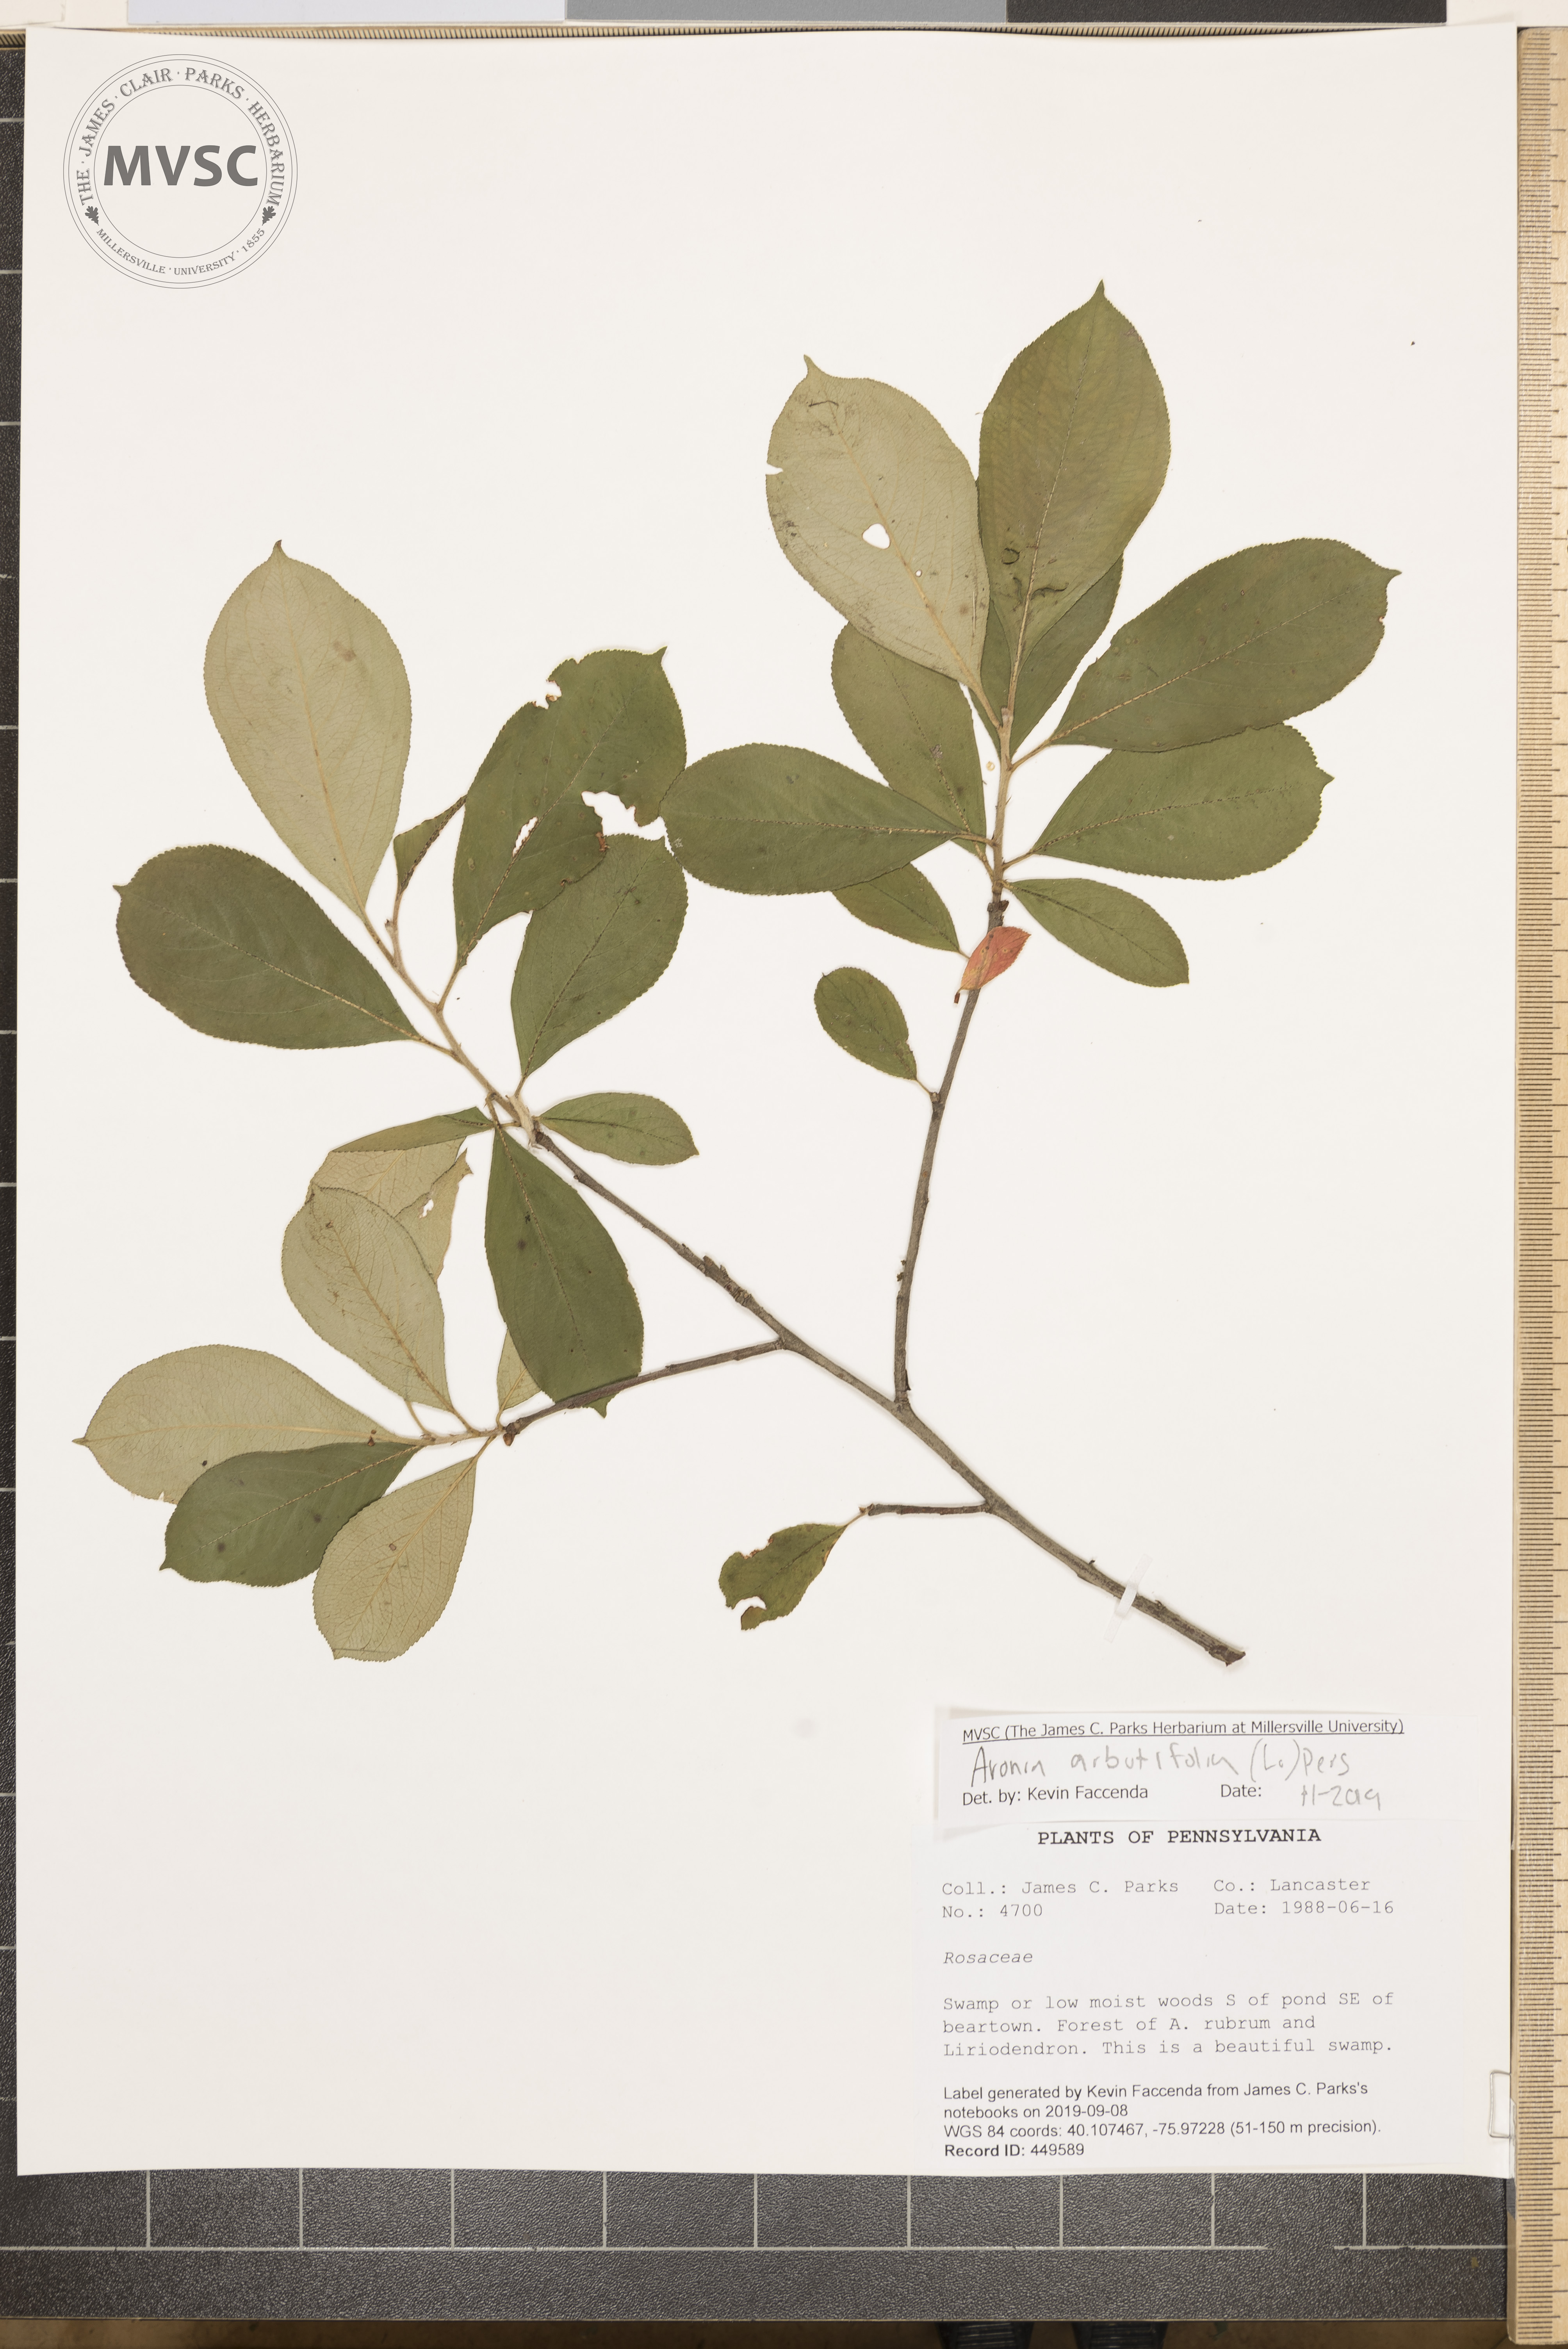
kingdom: Plantae
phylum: Tracheophyta
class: Magnoliopsida
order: Rosales
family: Rosaceae
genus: Aronia
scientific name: Aronia arbutifolia
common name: Red chokeberry
